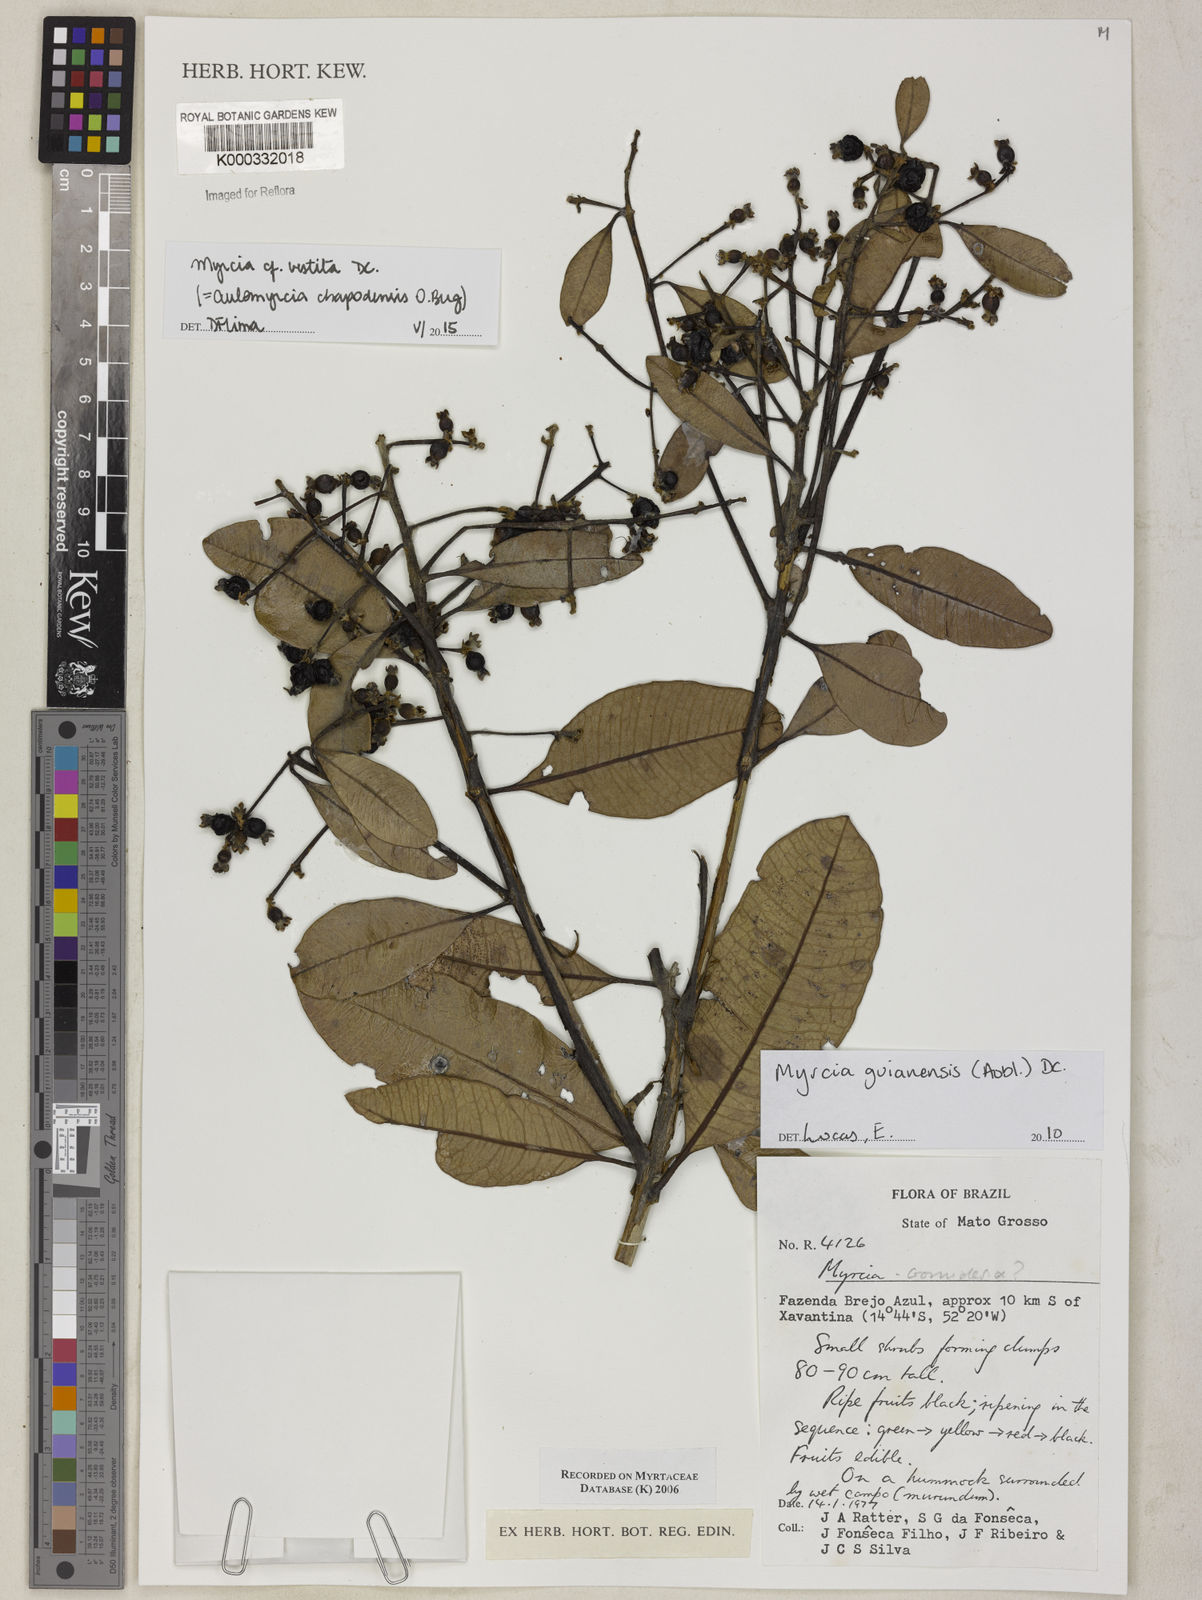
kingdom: Plantae
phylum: Tracheophyta
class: Magnoliopsida
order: Myrtales
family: Myrtaceae
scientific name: Myrtaceae
